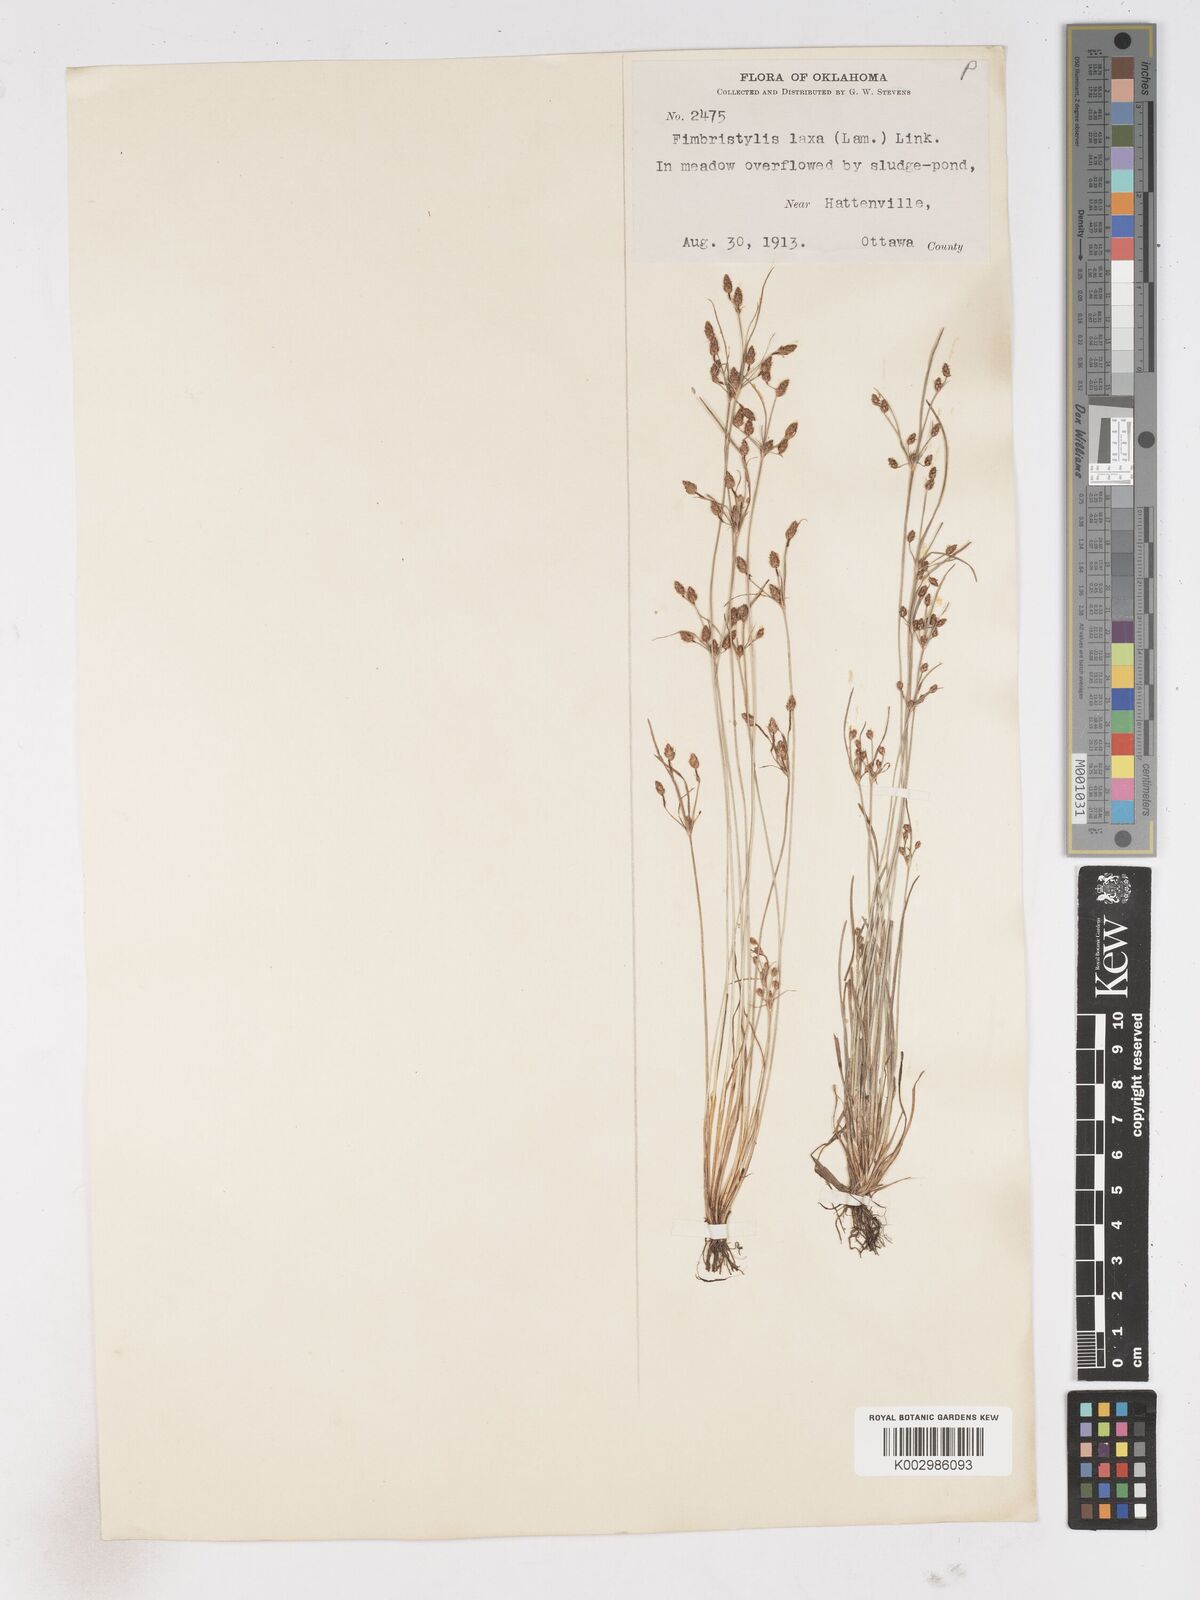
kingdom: Plantae
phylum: Tracheophyta
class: Liliopsida
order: Poales
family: Cyperaceae
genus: Fimbristylis
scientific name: Fimbristylis dichotoma
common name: Forked fimbry
